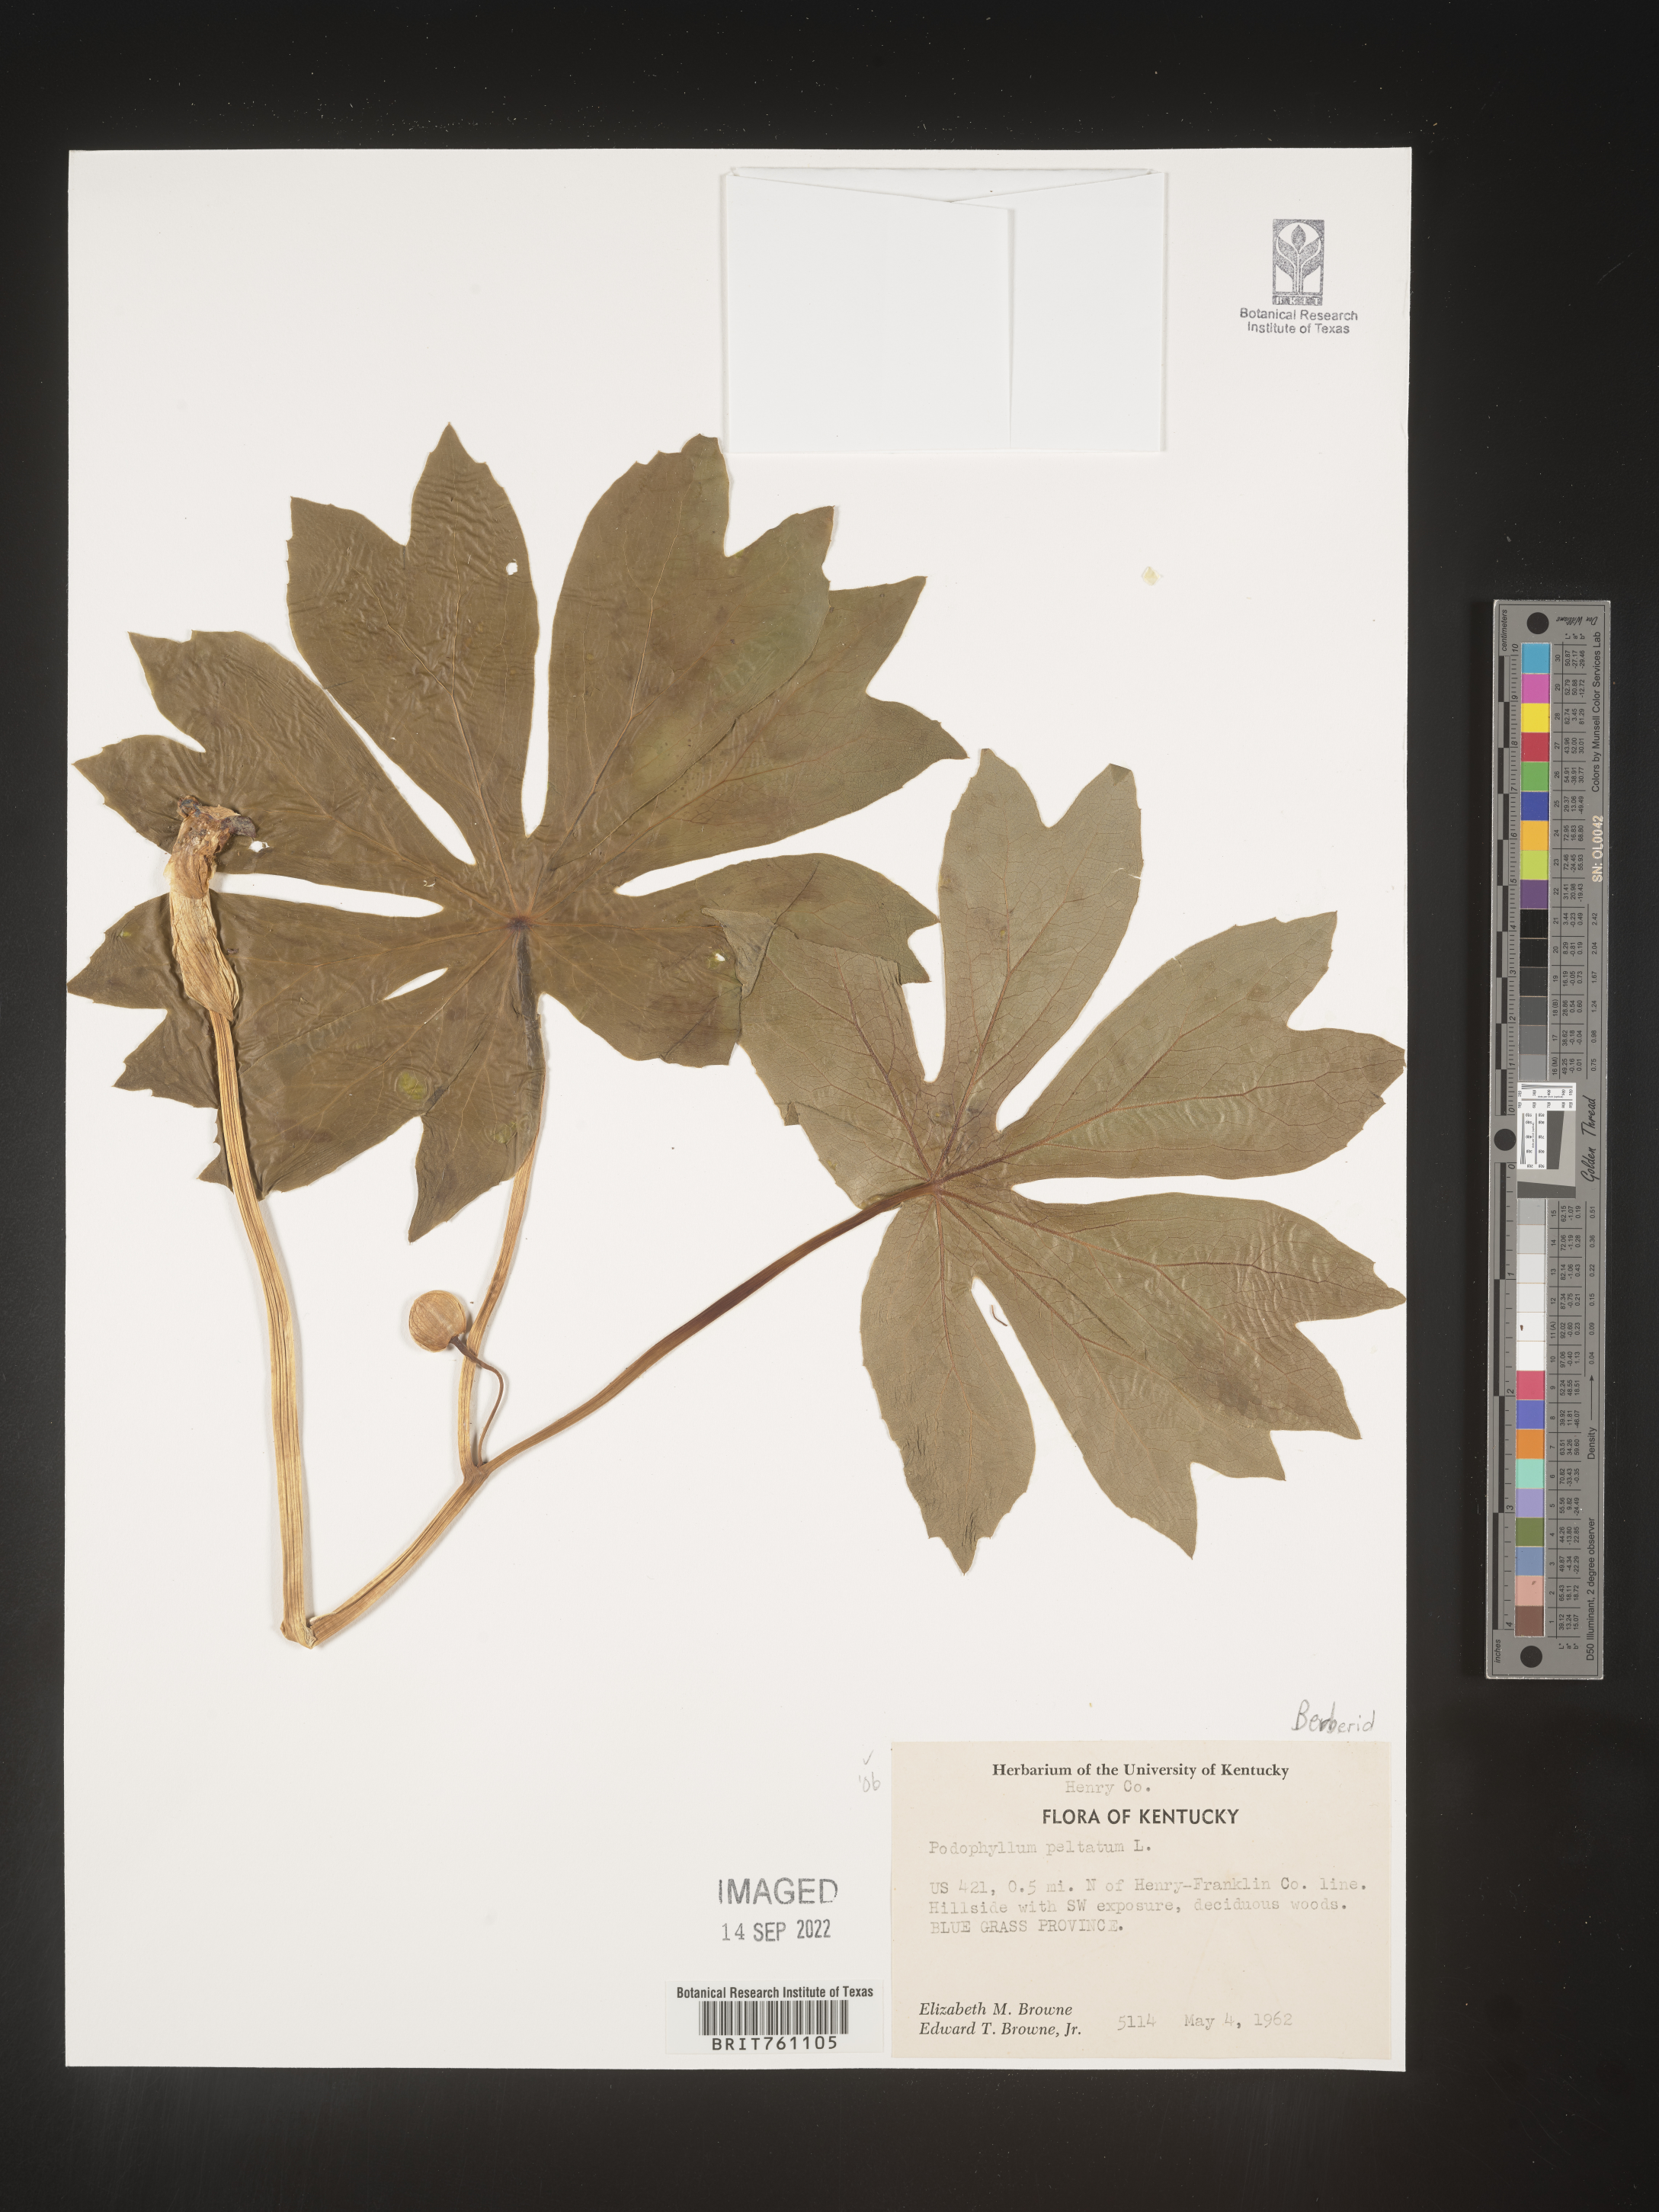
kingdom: Plantae
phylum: Tracheophyta
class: Magnoliopsida
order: Ranunculales
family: Berberidaceae
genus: Podophyllum
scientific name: Podophyllum peltatum
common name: Wild mandrake
